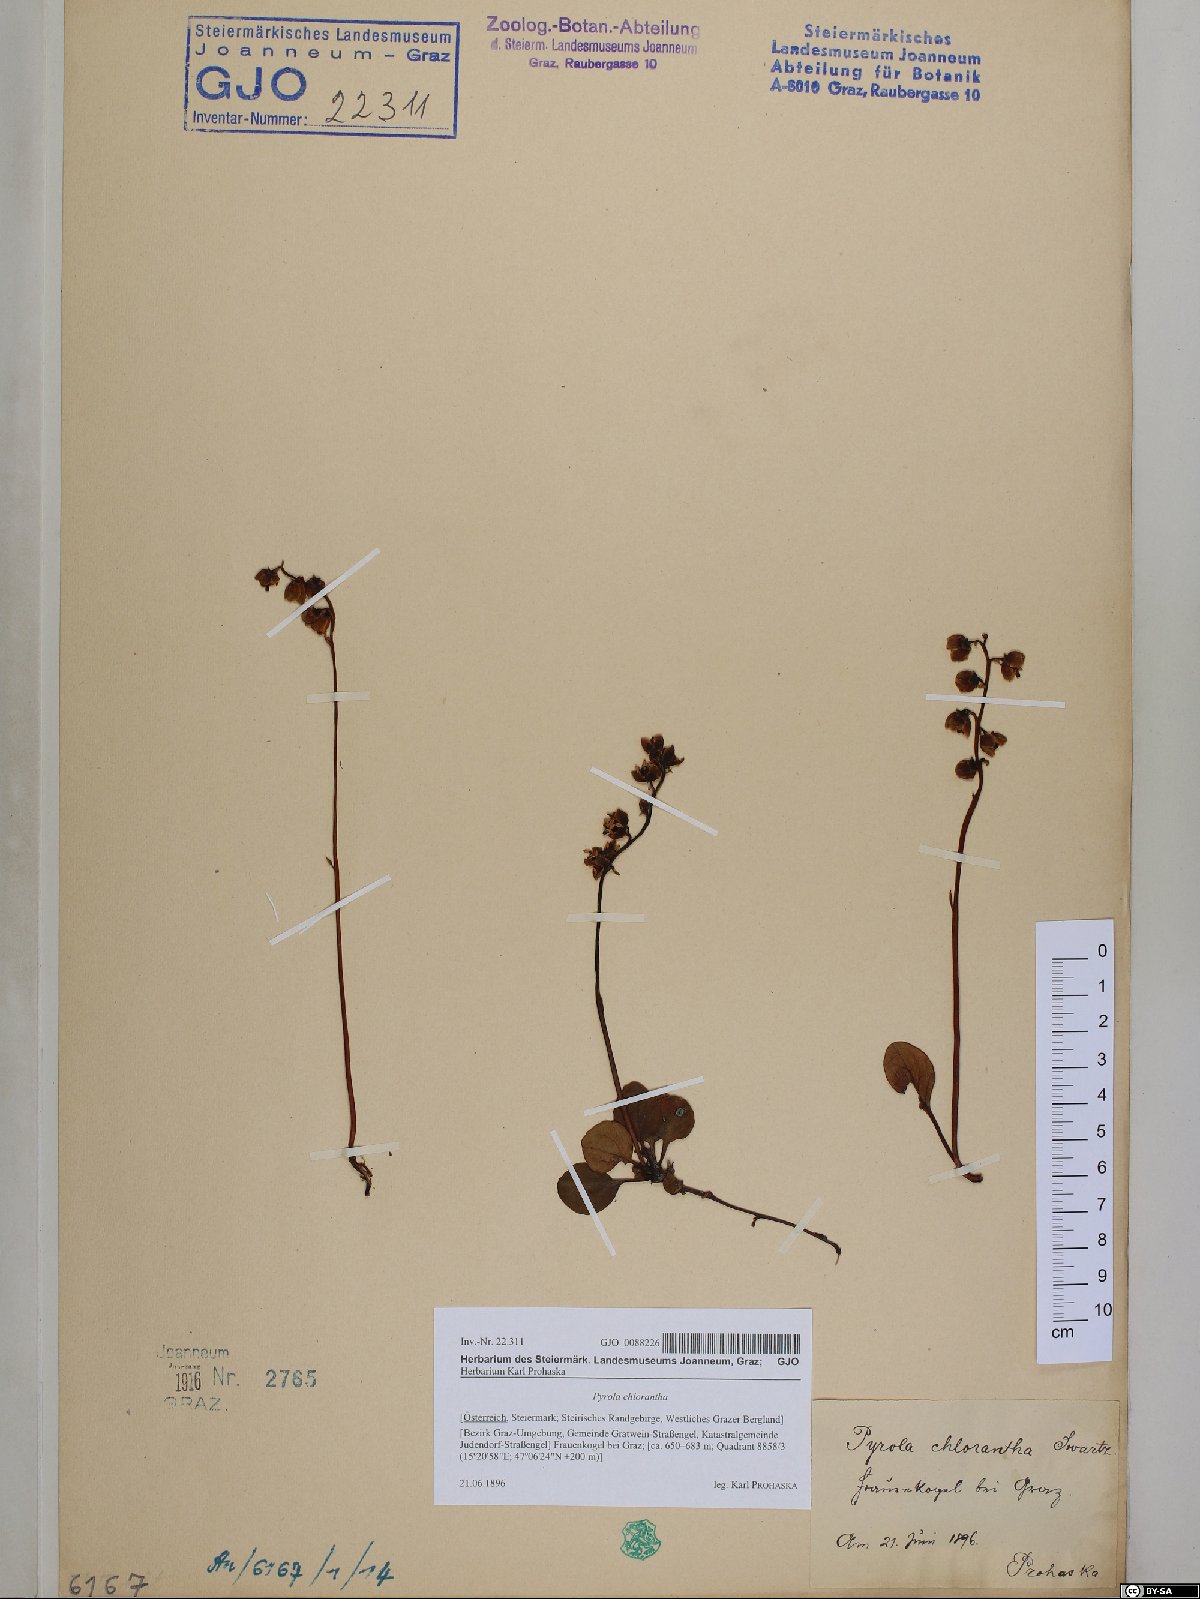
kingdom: Plantae
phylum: Tracheophyta
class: Magnoliopsida
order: Ericales
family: Ericaceae
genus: Pyrola
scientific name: Pyrola chlorantha
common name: Green wintergreen
